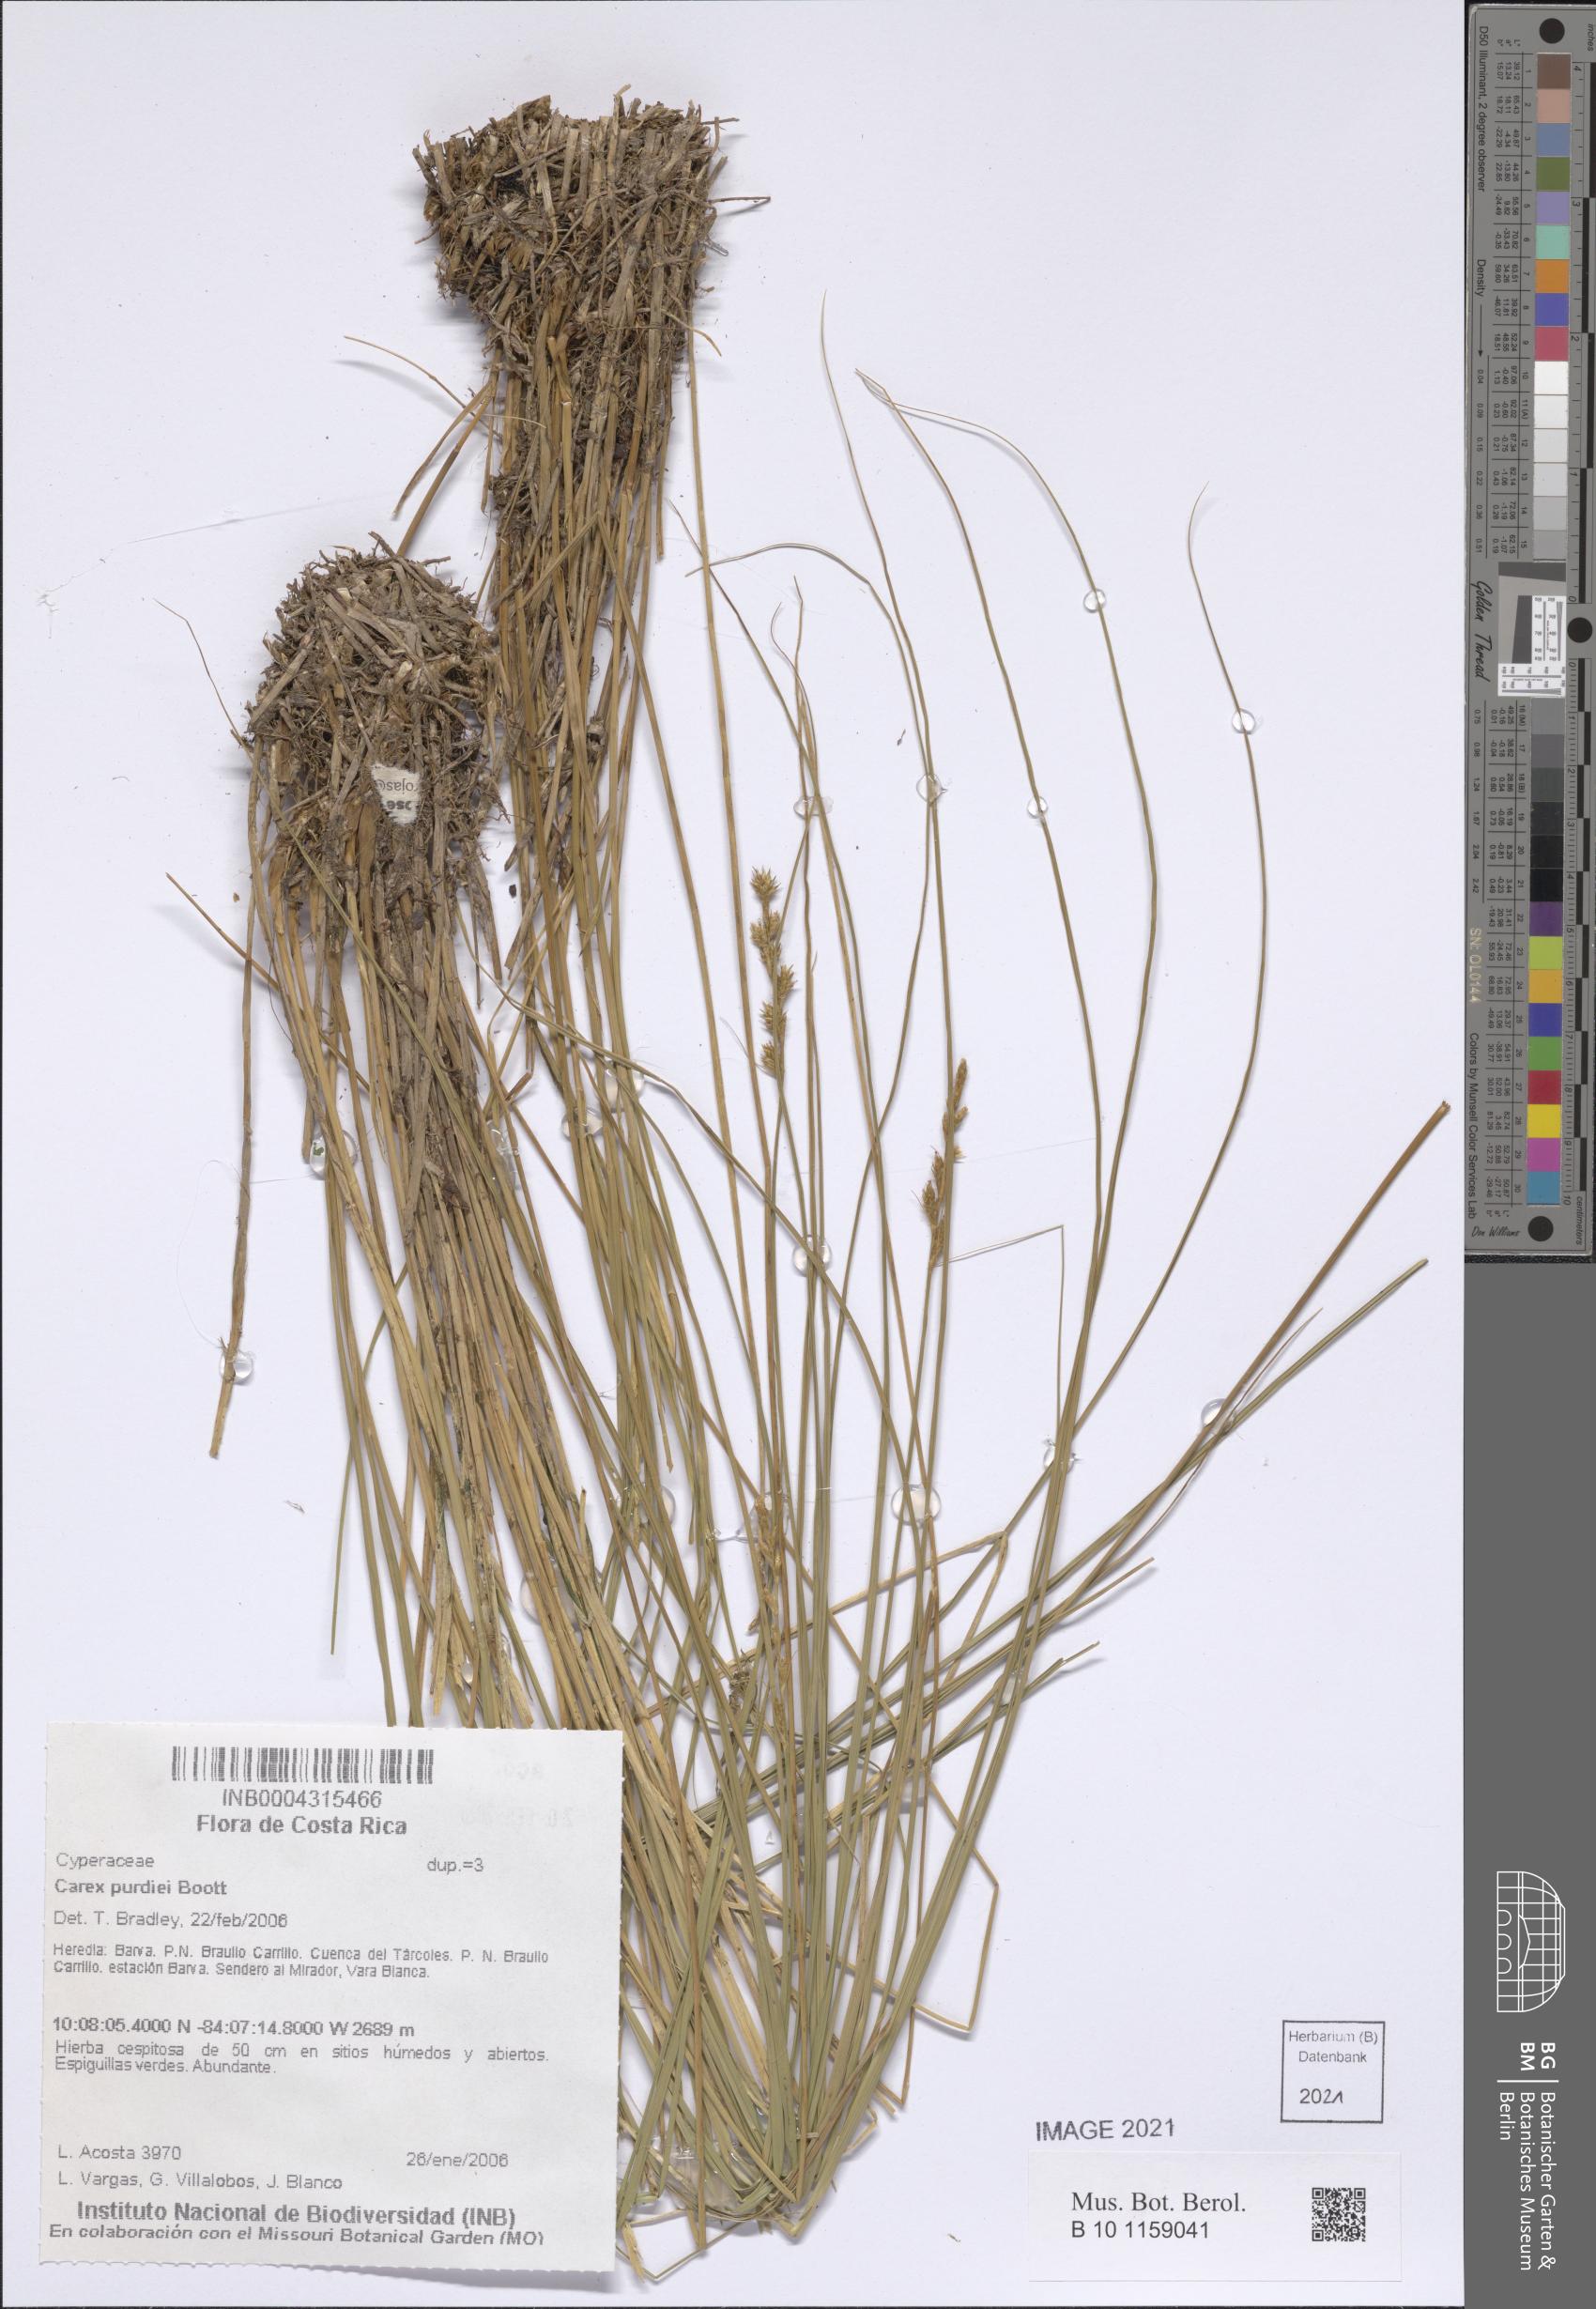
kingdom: Plantae
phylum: Tracheophyta
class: Liliopsida
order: Poales
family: Cyperaceae
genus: Carex
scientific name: Carex purdiei
